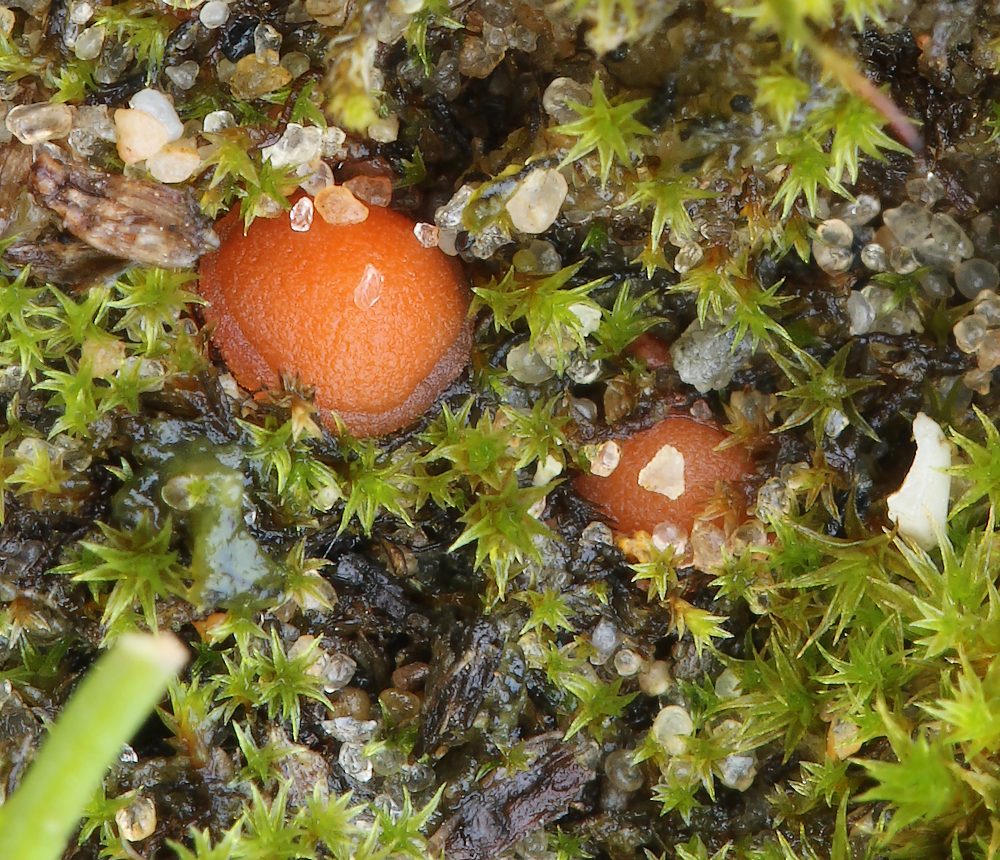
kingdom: Fungi
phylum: Ascomycota
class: Pezizomycetes
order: Pezizales
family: Pyronemataceae
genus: Octospora
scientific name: Octospora rustica
